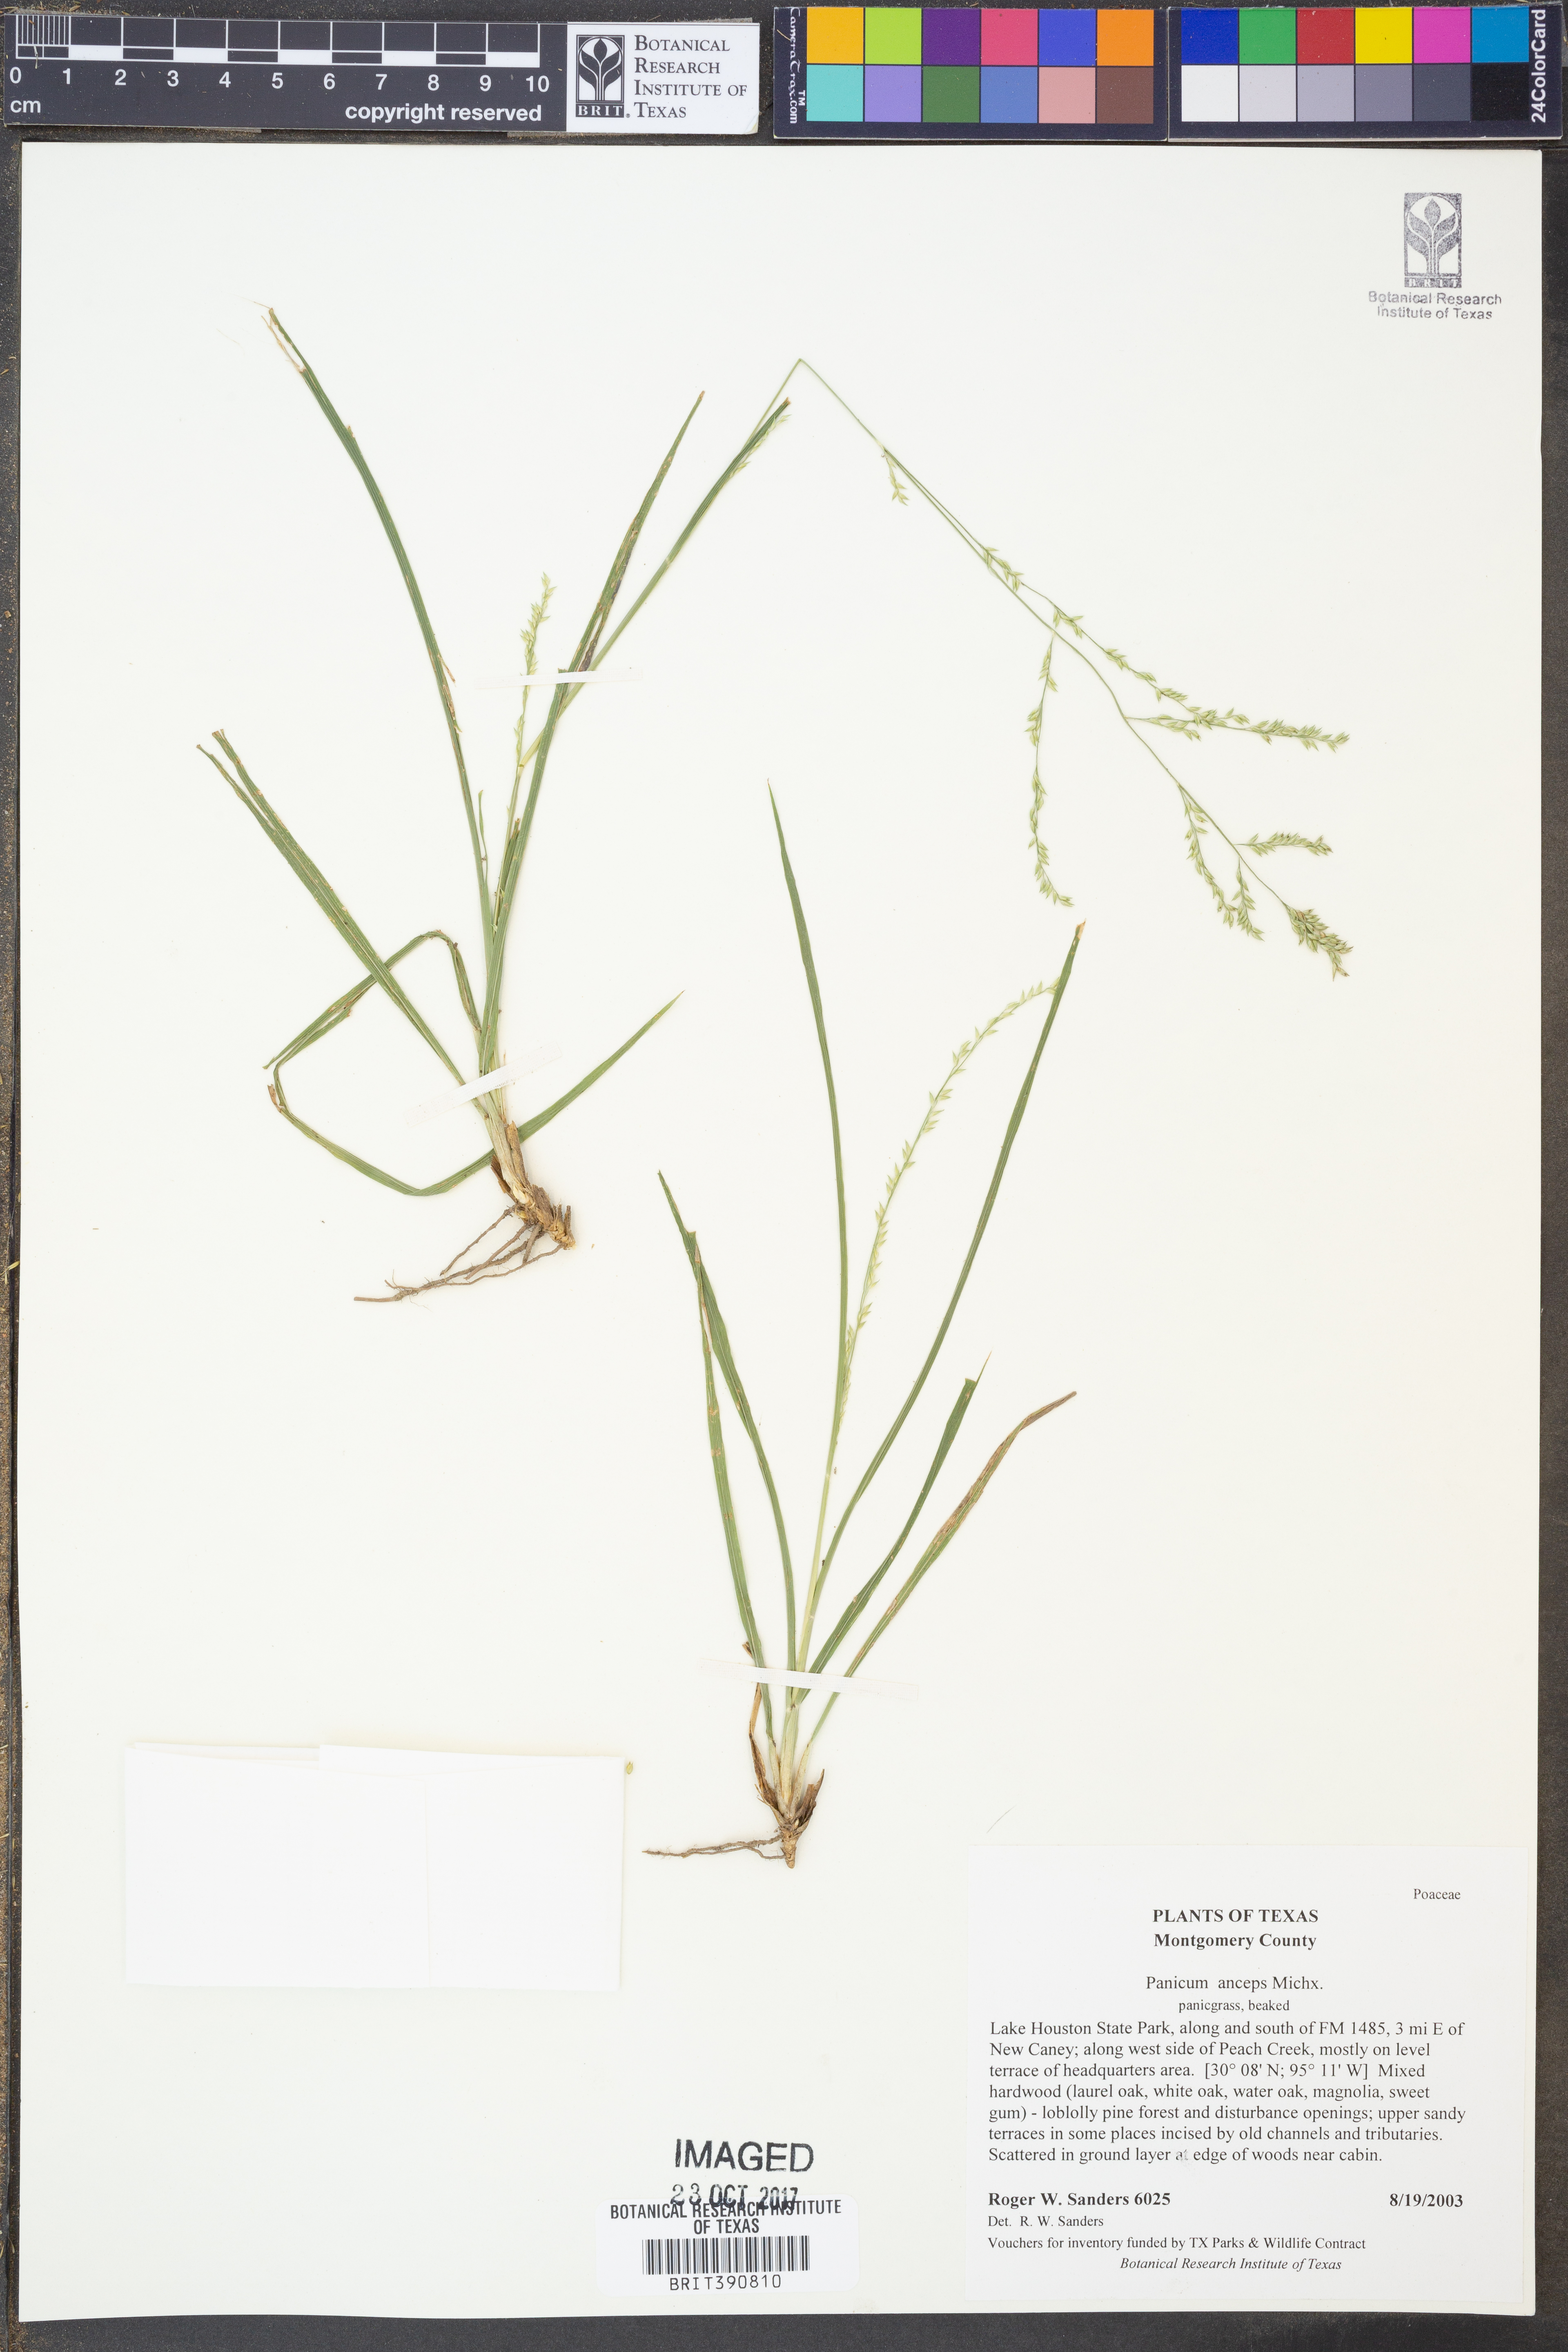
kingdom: Plantae
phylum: Tracheophyta
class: Liliopsida
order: Poales
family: Poaceae
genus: Coleataenia
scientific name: Coleataenia anceps
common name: Beaked panic grass
